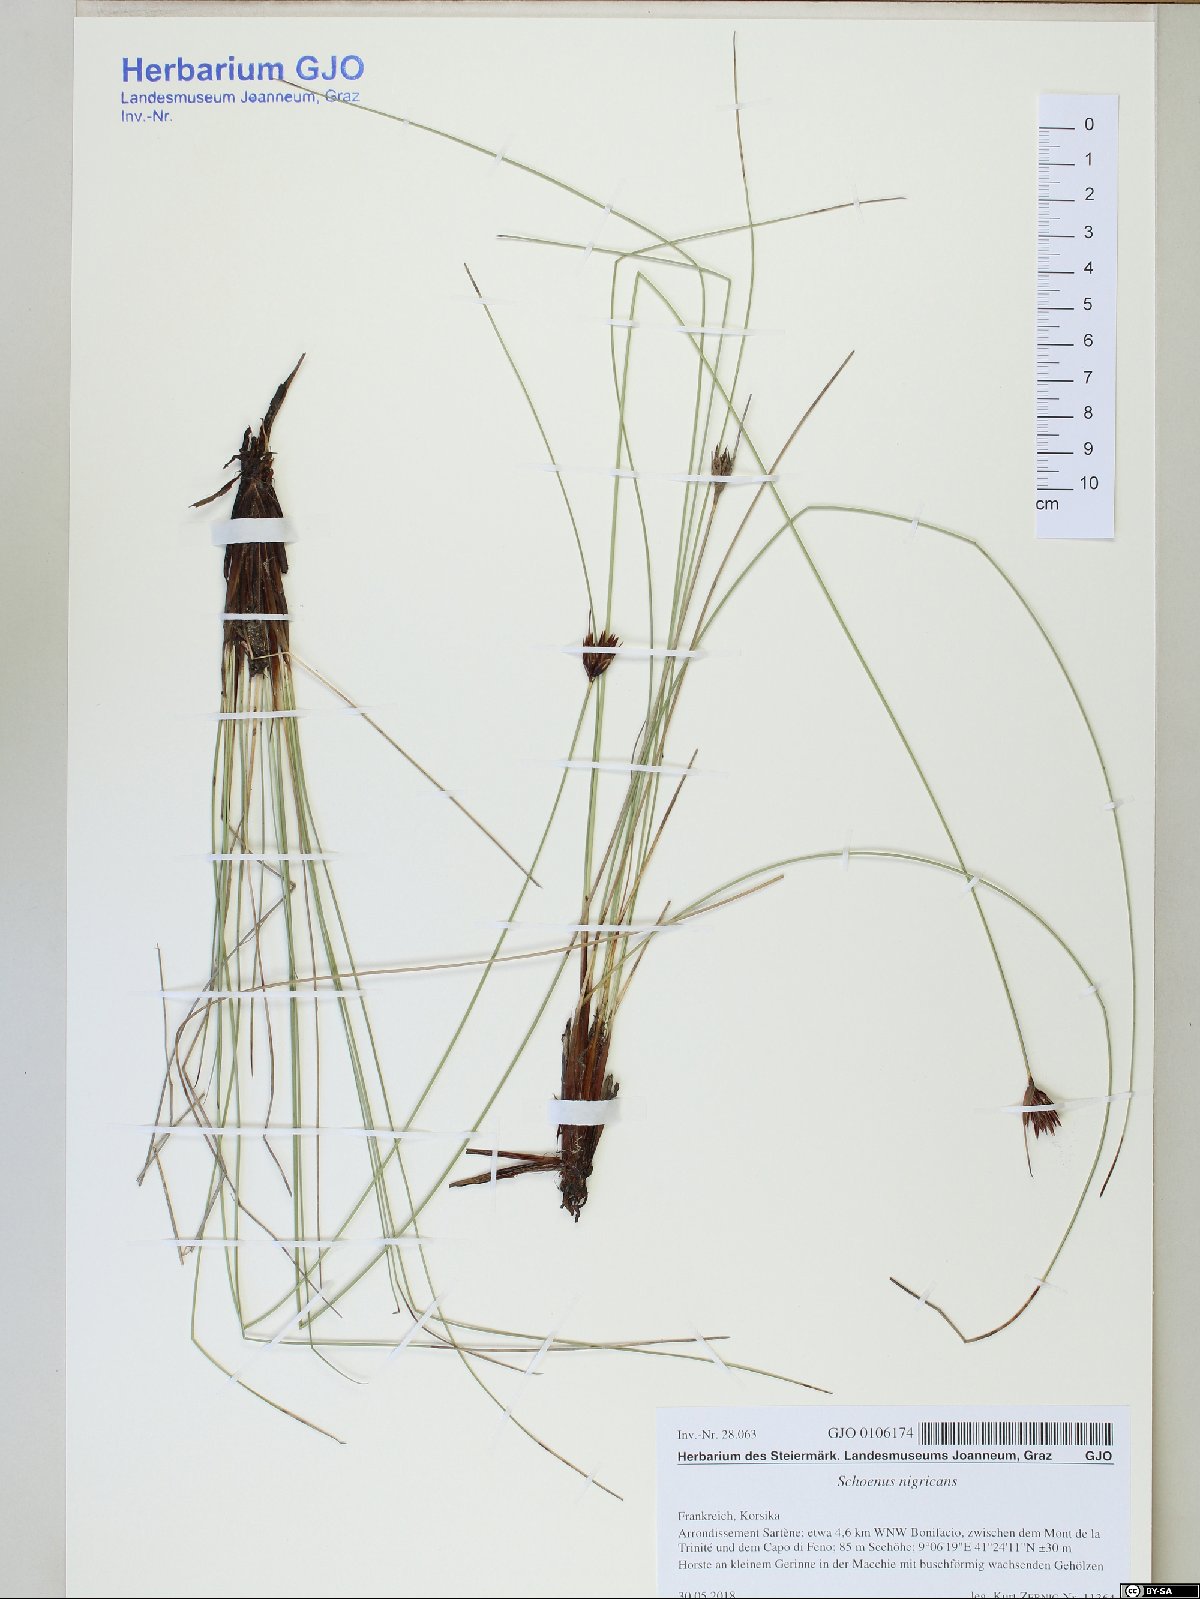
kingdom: Plantae
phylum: Tracheophyta
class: Liliopsida
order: Poales
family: Cyperaceae
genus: Schoenus
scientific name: Schoenus nigricans
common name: Black bog-rush
